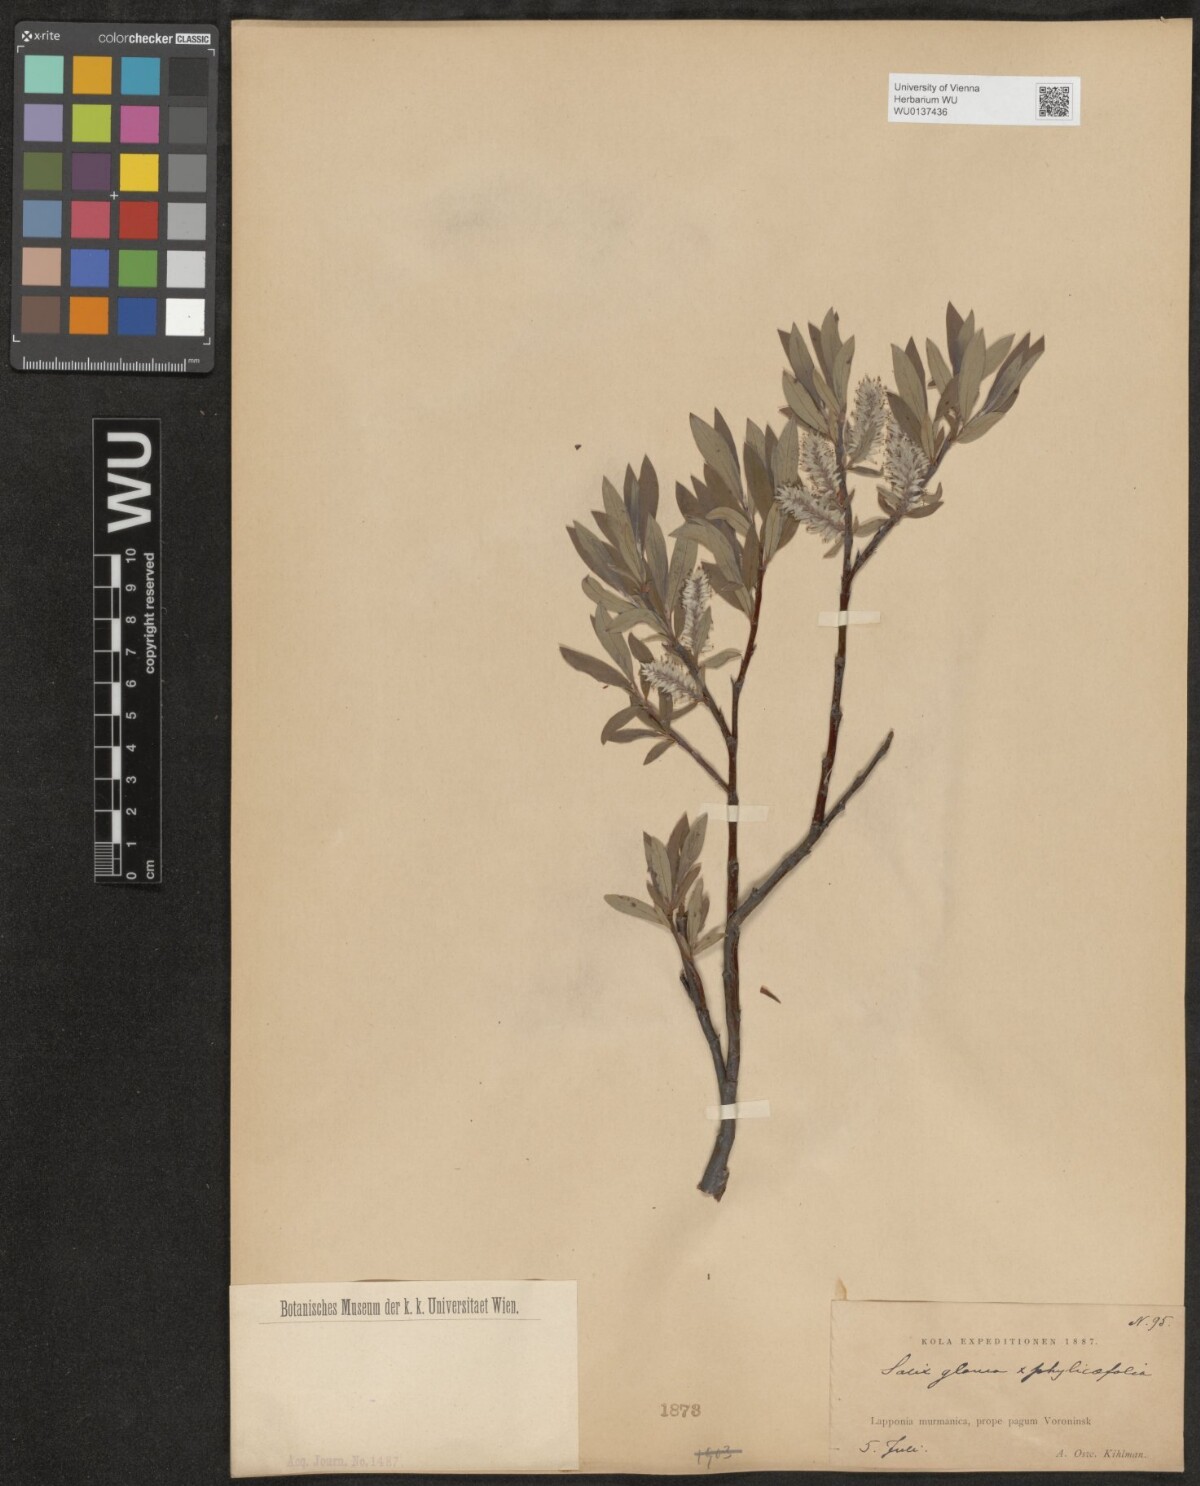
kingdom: Plantae
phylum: Tracheophyta
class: Magnoliopsida
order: Malpighiales
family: Salicaceae
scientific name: Salicaceae
